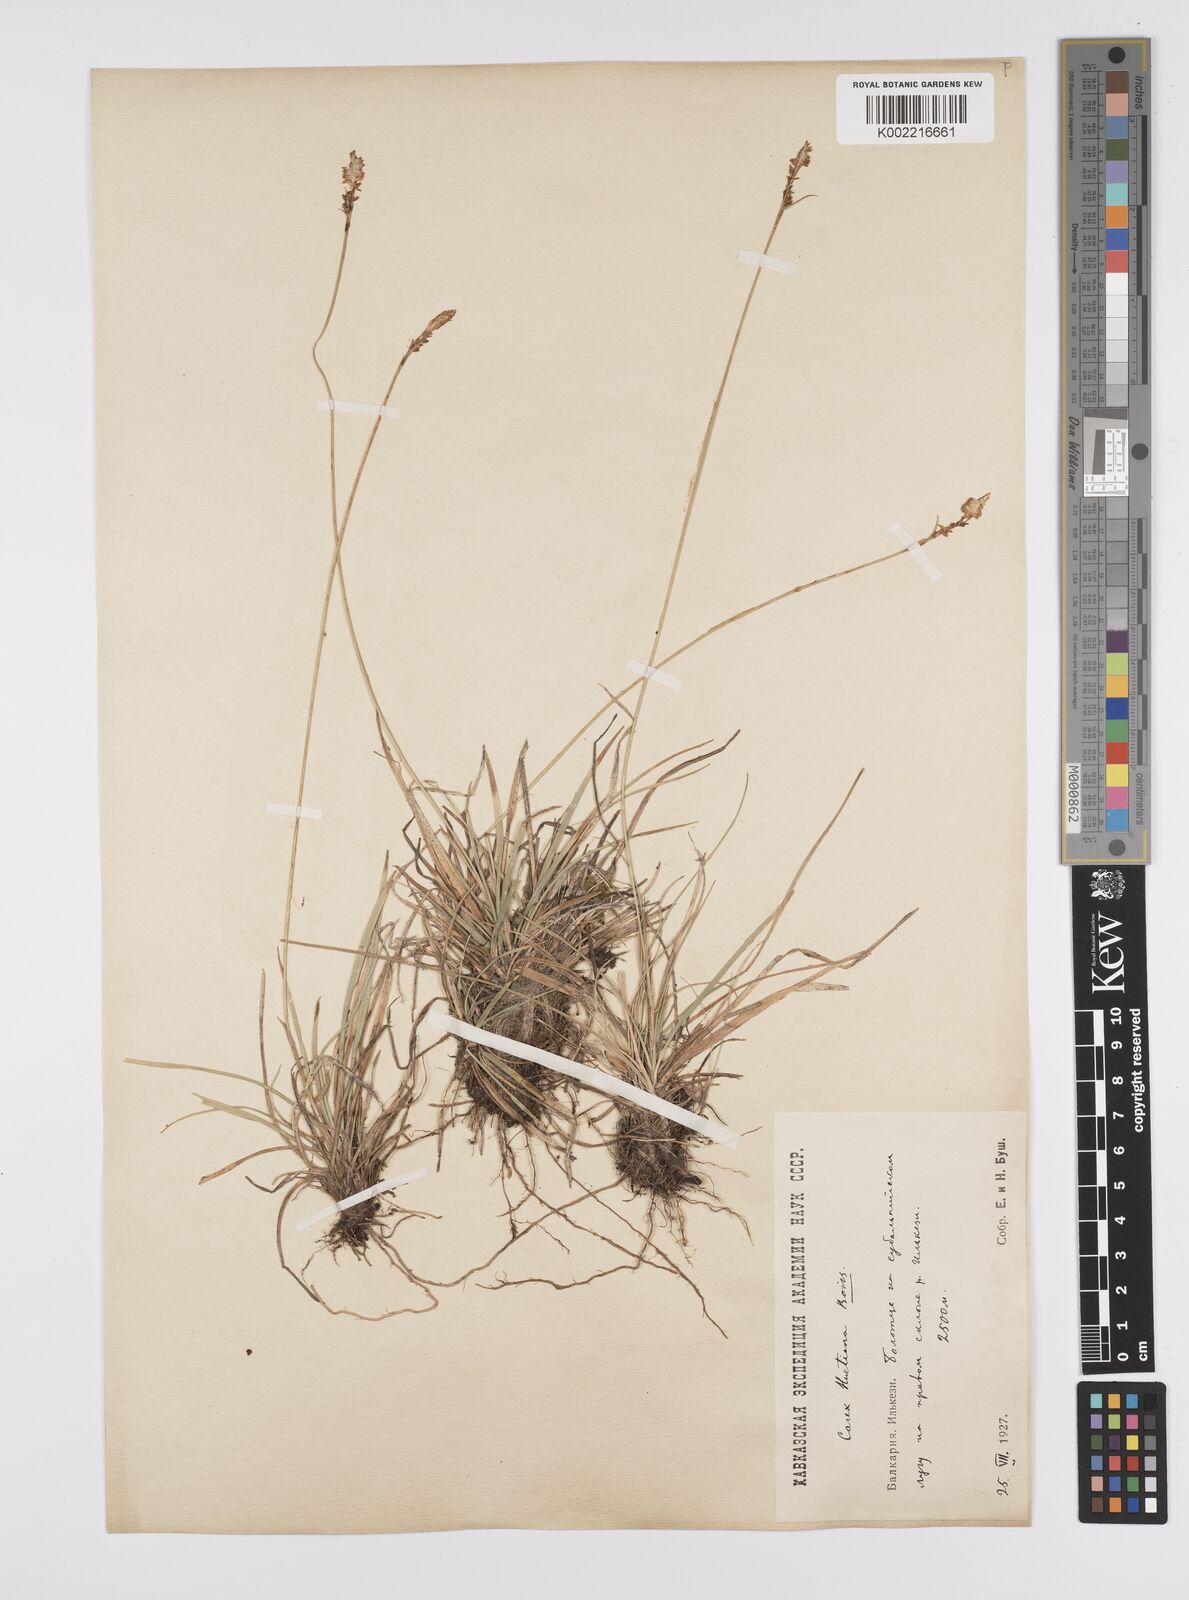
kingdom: Plantae
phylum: Tracheophyta
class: Liliopsida
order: Poales
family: Cyperaceae
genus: Carex
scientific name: Carex umbrosa
